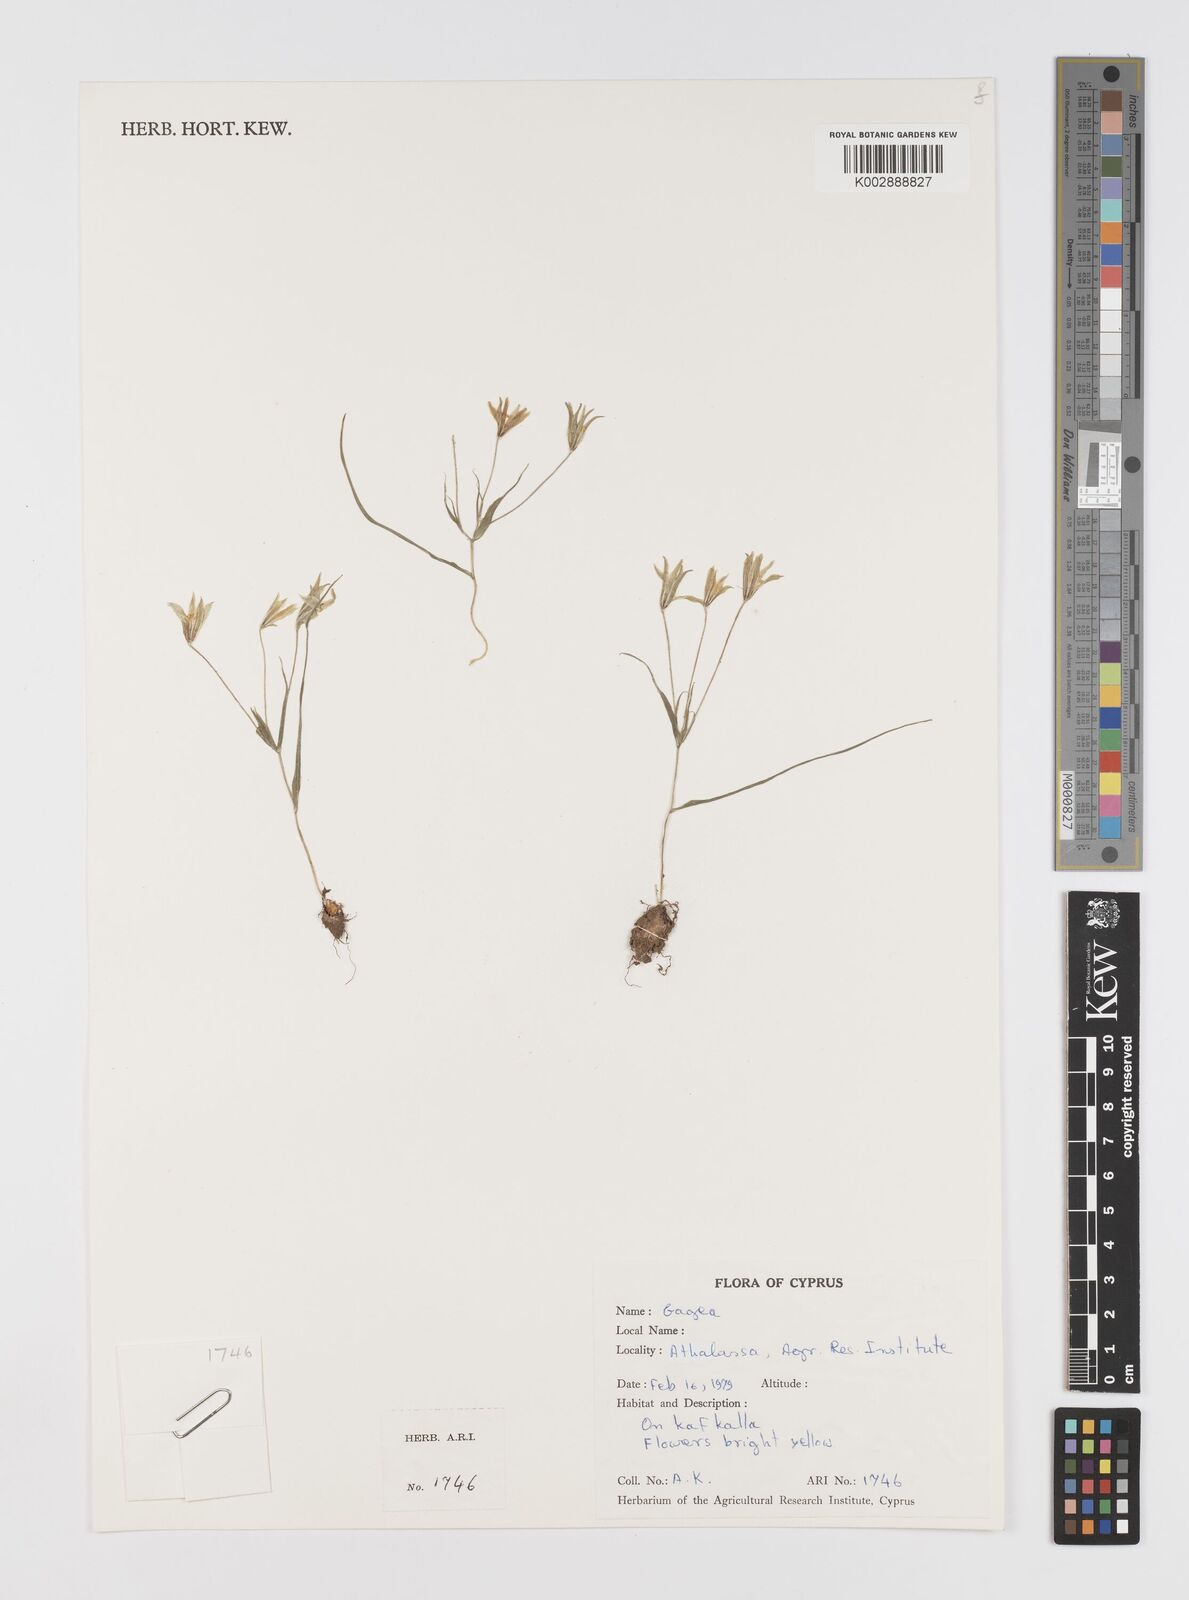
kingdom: Plantae
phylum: Tracheophyta
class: Liliopsida
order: Liliales
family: Liliaceae
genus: Gagea
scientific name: Gagea
